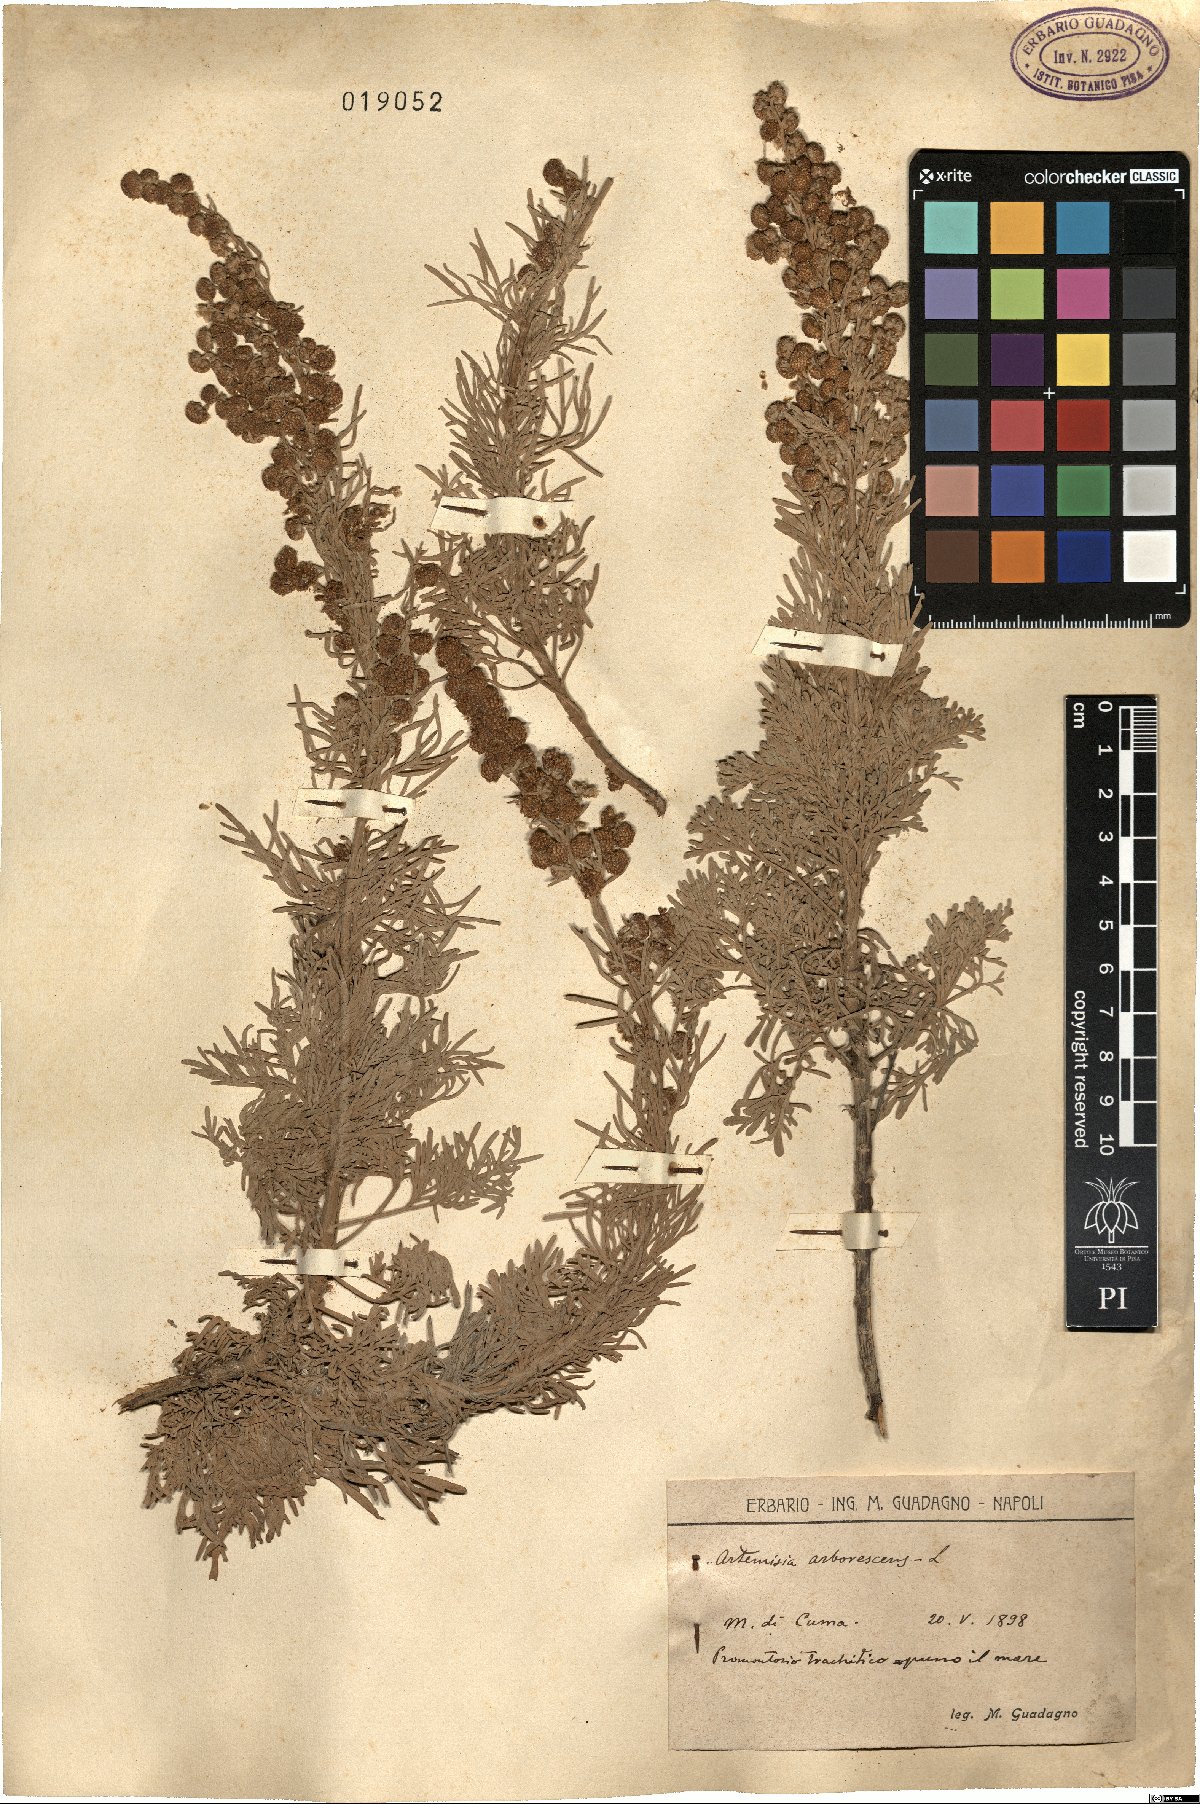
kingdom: Plantae
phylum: Tracheophyta
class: Magnoliopsida
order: Asterales
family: Asteraceae
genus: Artemisia
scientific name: Artemisia arborescens
